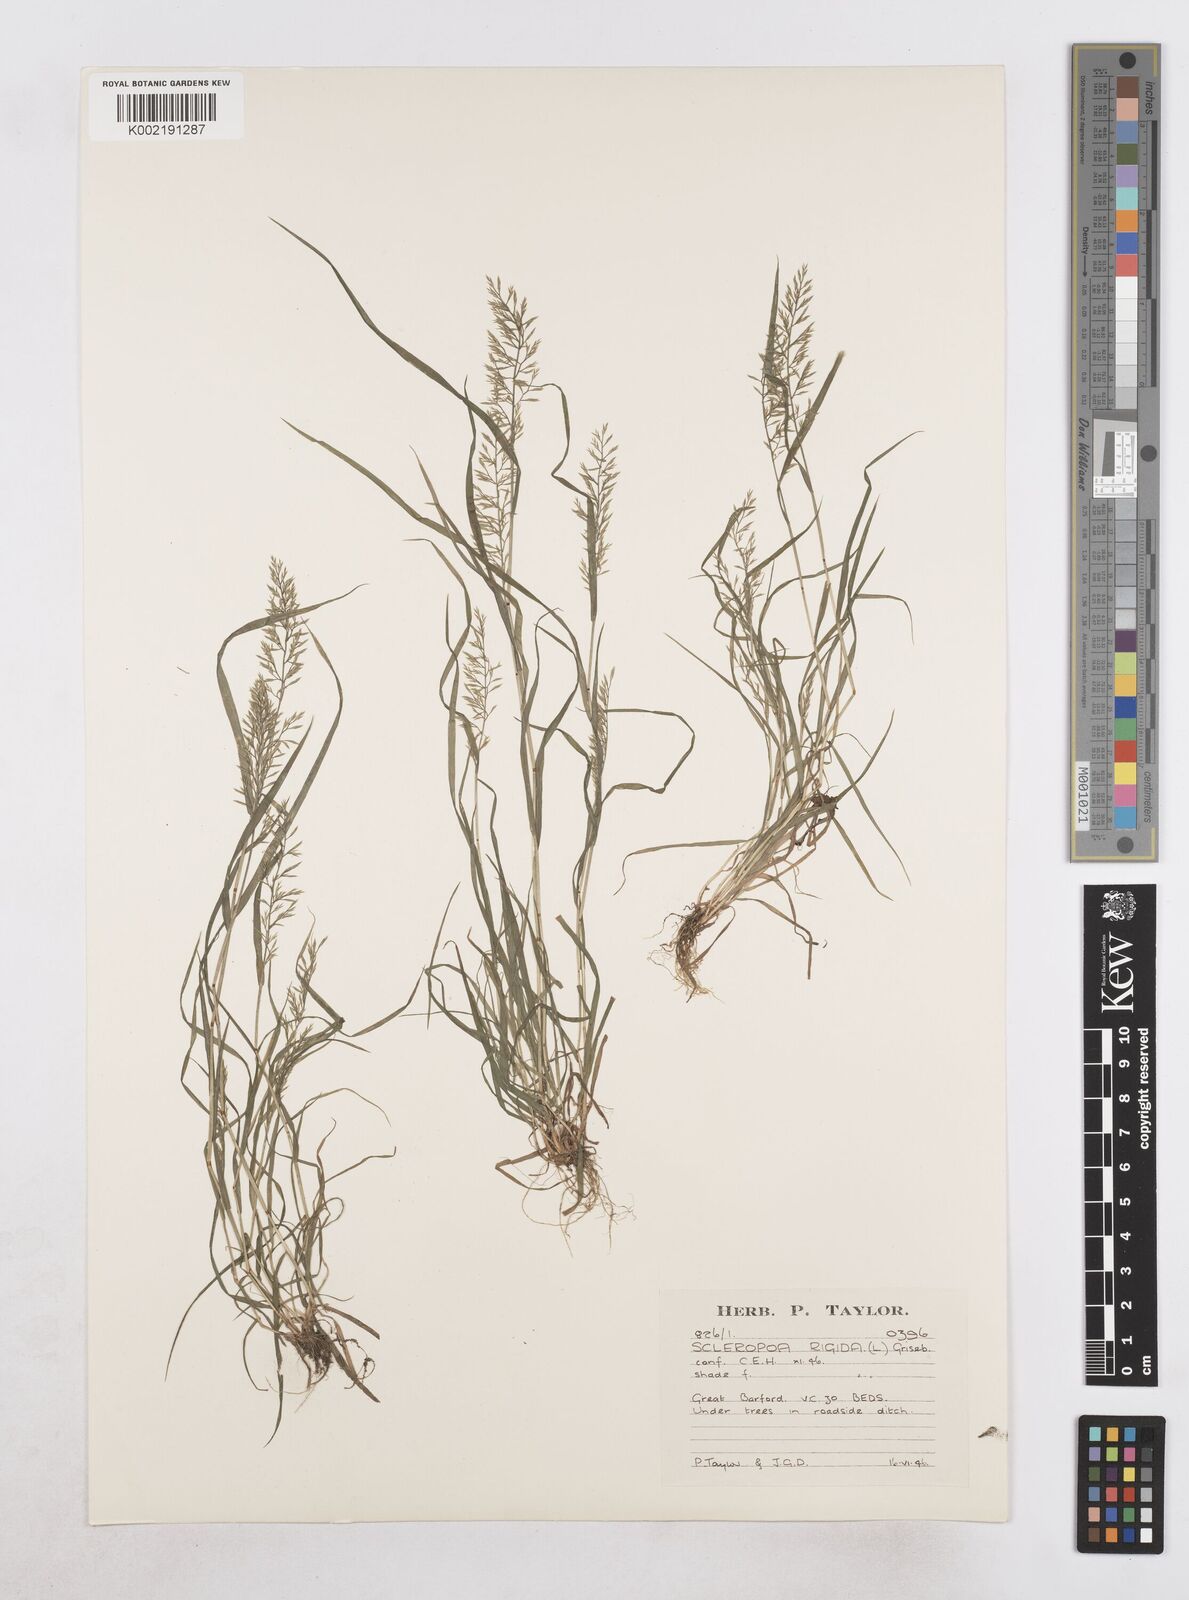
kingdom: Plantae
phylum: Tracheophyta
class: Liliopsida
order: Poales
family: Poaceae
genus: Catapodium
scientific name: Catapodium rigidum
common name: Fern-grass
